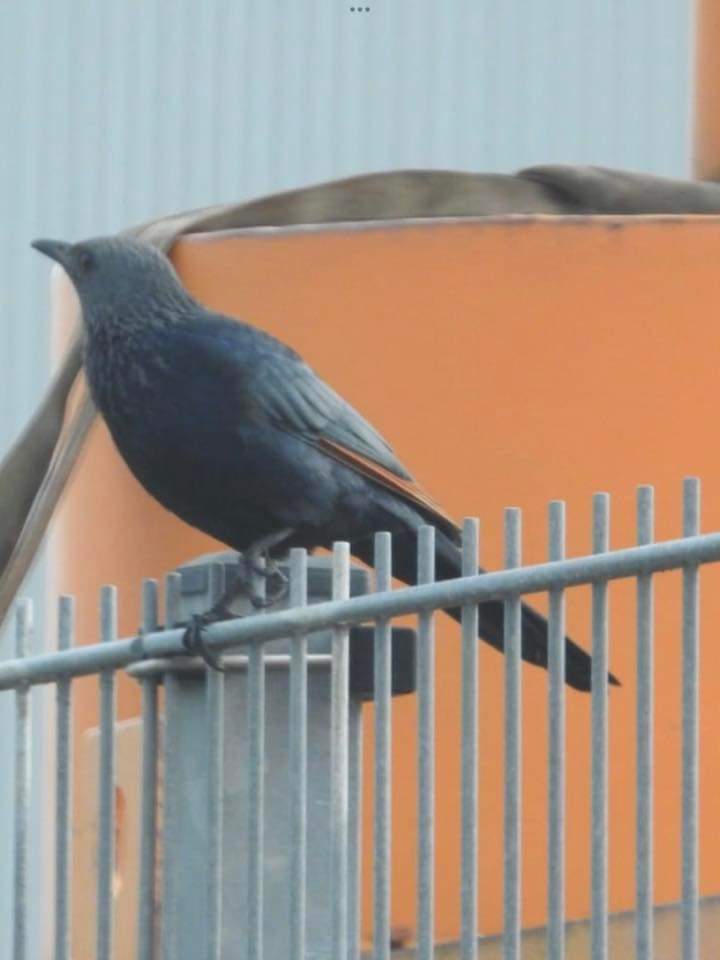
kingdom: Animalia
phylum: Chordata
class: Aves
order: Passeriformes
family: Sturnidae
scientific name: Sturnidae
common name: Stære
